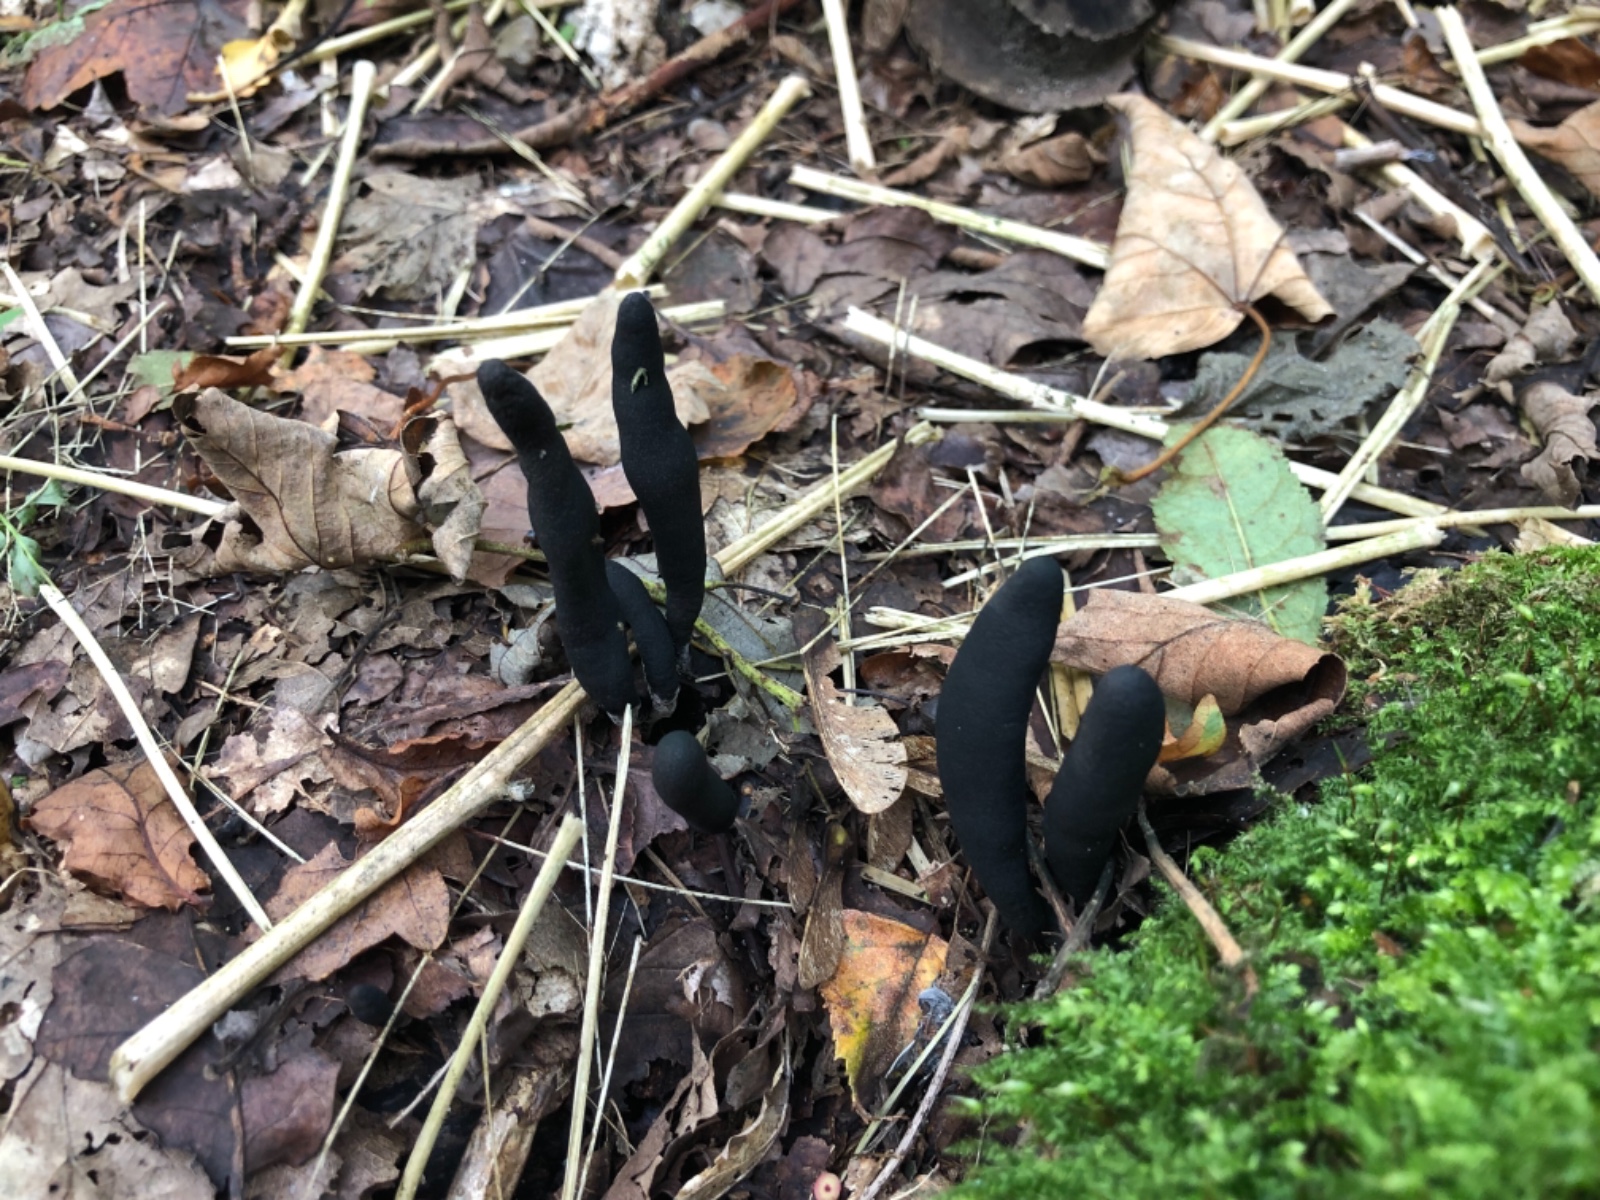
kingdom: Fungi
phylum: Ascomycota
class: Sordariomycetes
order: Xylariales
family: Xylariaceae
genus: Xylaria
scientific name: Xylaria longipes
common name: slank stødsvamp
